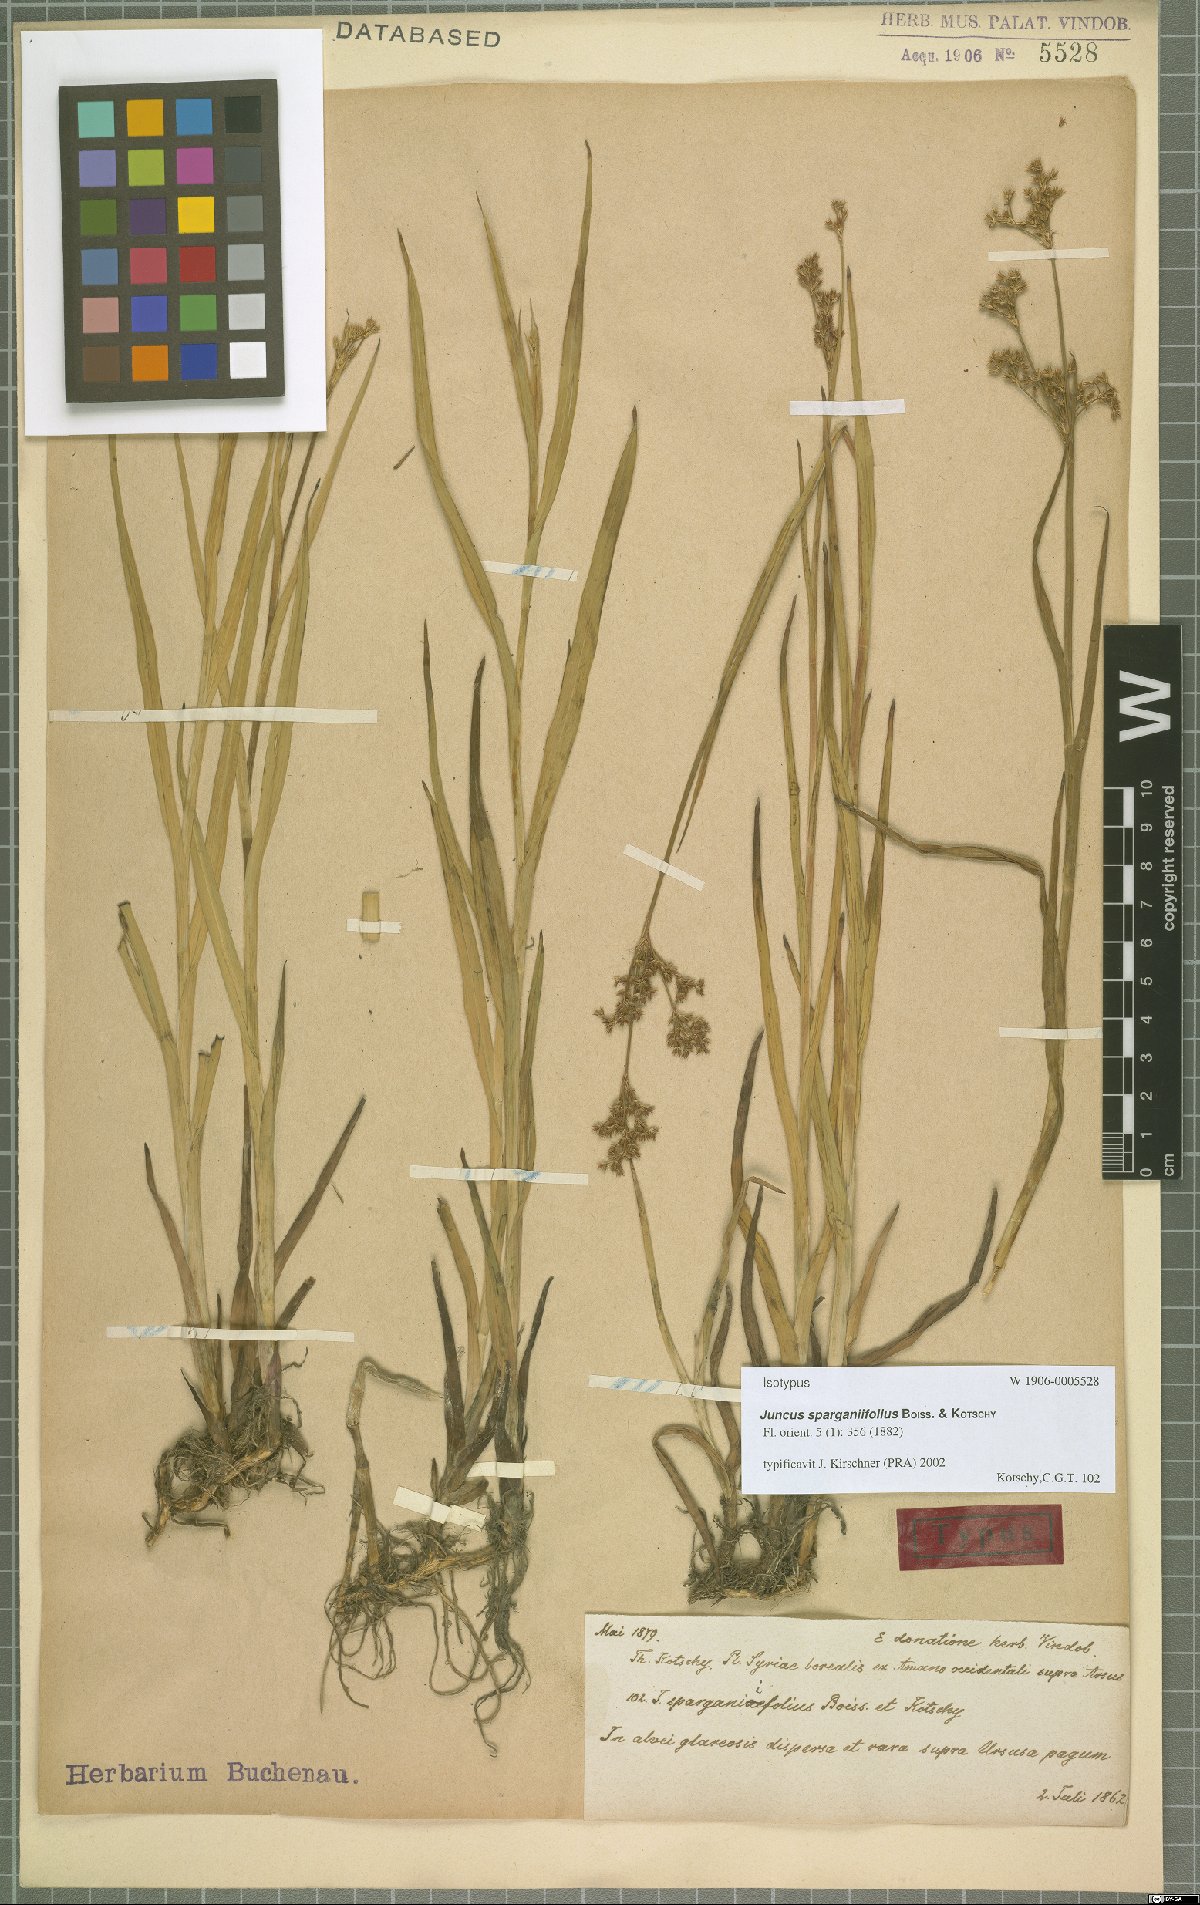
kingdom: Plantae
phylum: Tracheophyta
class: Liliopsida
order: Poales
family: Juncaceae
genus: Juncus
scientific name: Juncus sparganiifolius
